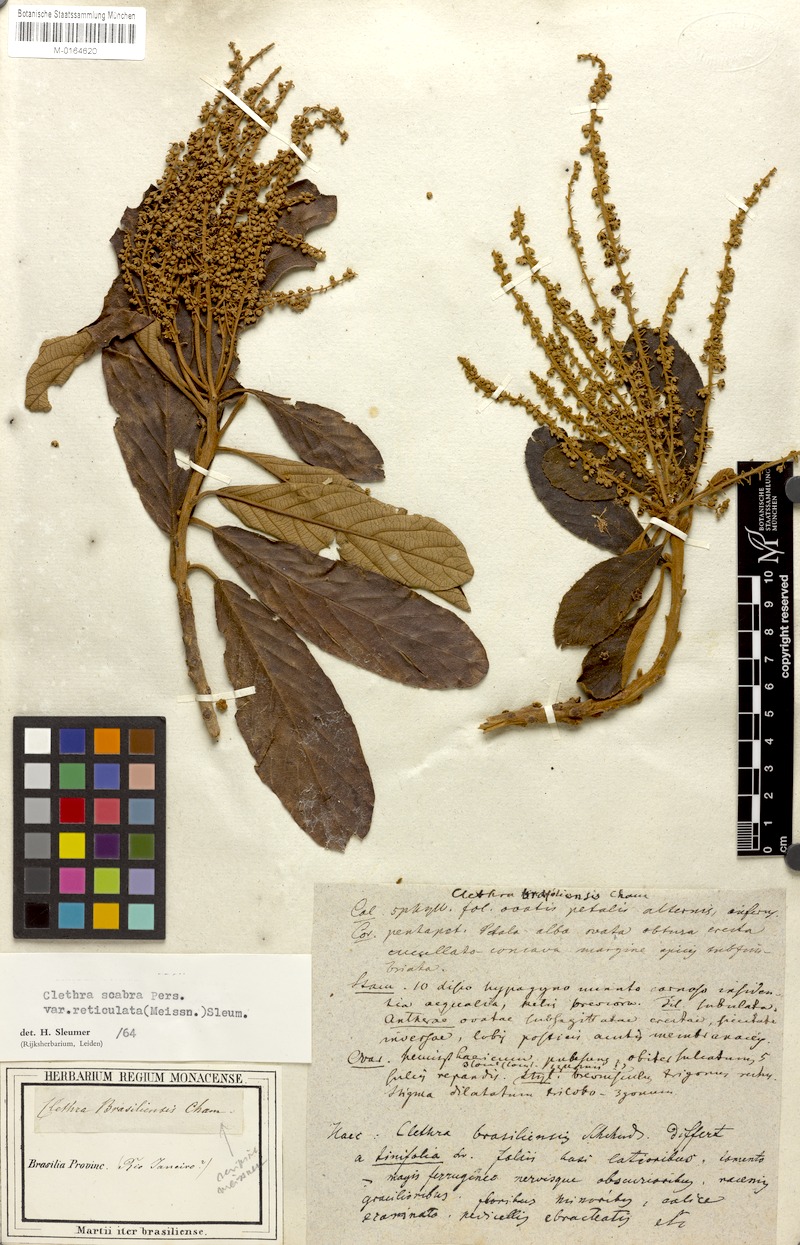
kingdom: Plantae
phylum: Tracheophyta
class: Magnoliopsida
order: Ericales
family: Clethraceae
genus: Clethra
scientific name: Clethra scabra
